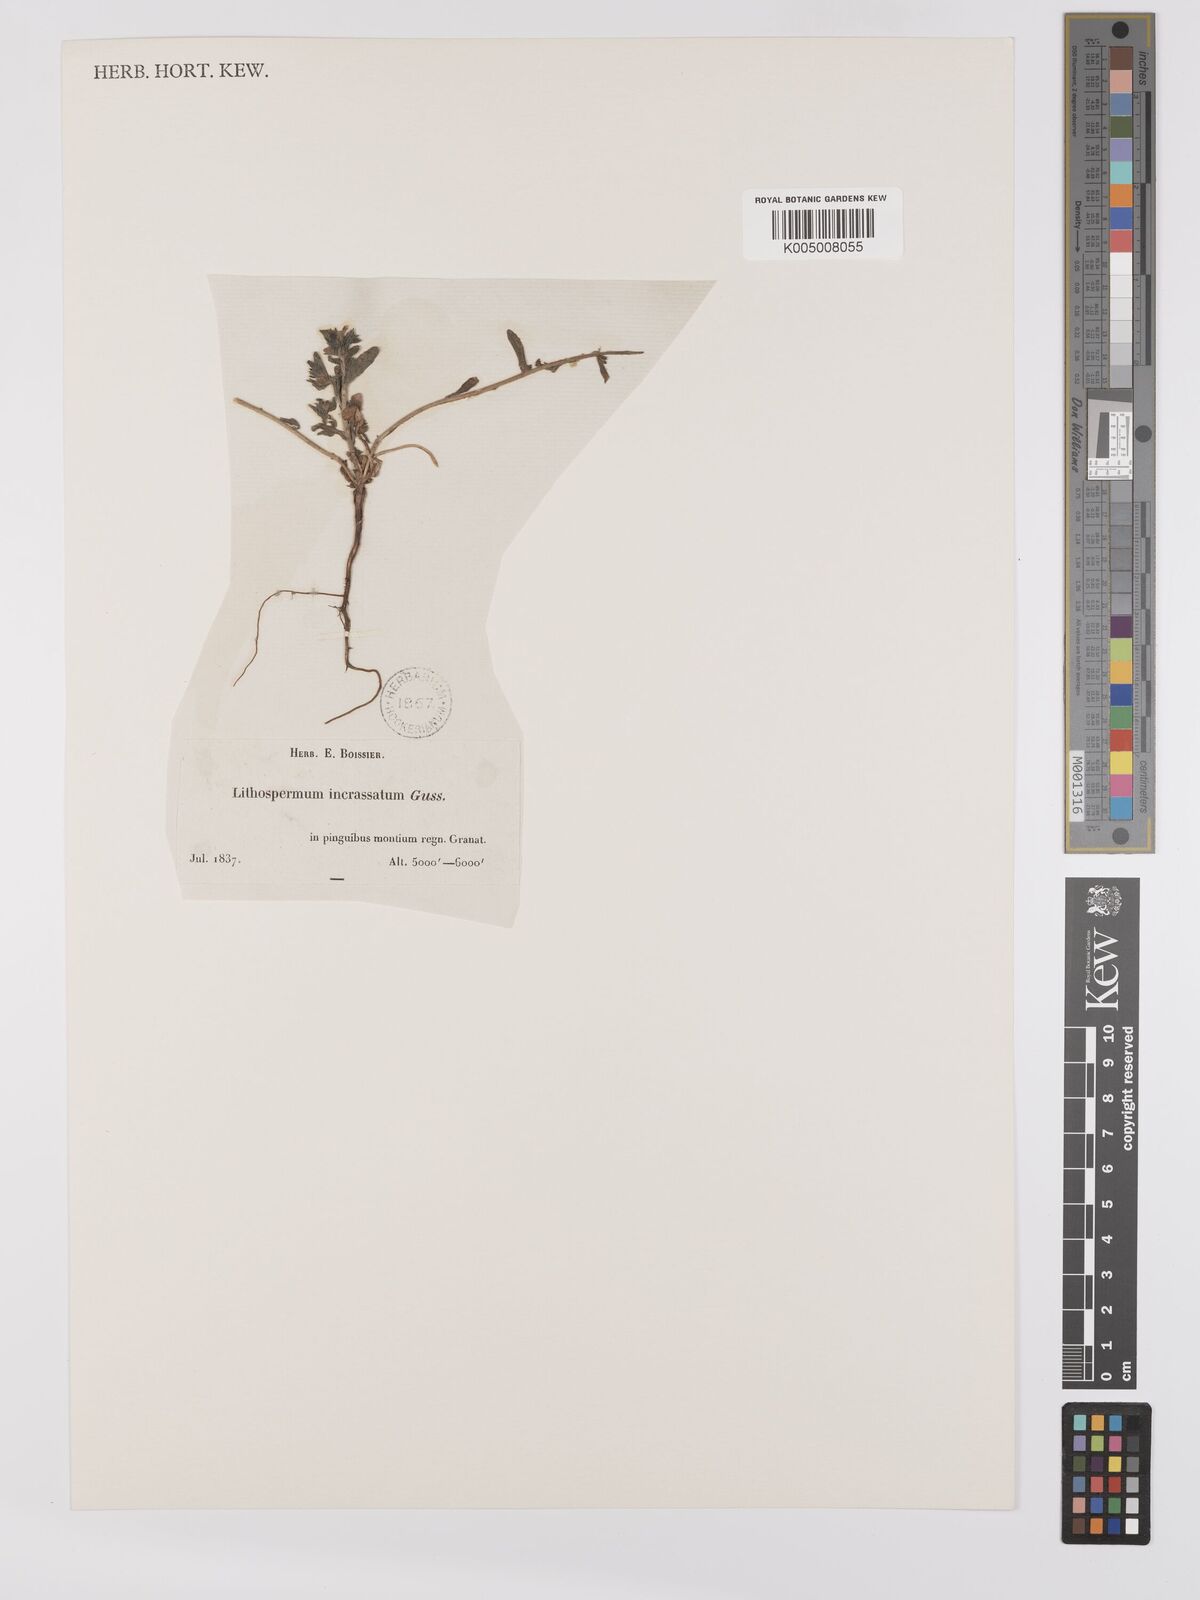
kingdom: Plantae
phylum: Tracheophyta
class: Magnoliopsida
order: Boraginales
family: Boraginaceae
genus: Buglossoides
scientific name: Buglossoides incrassata
